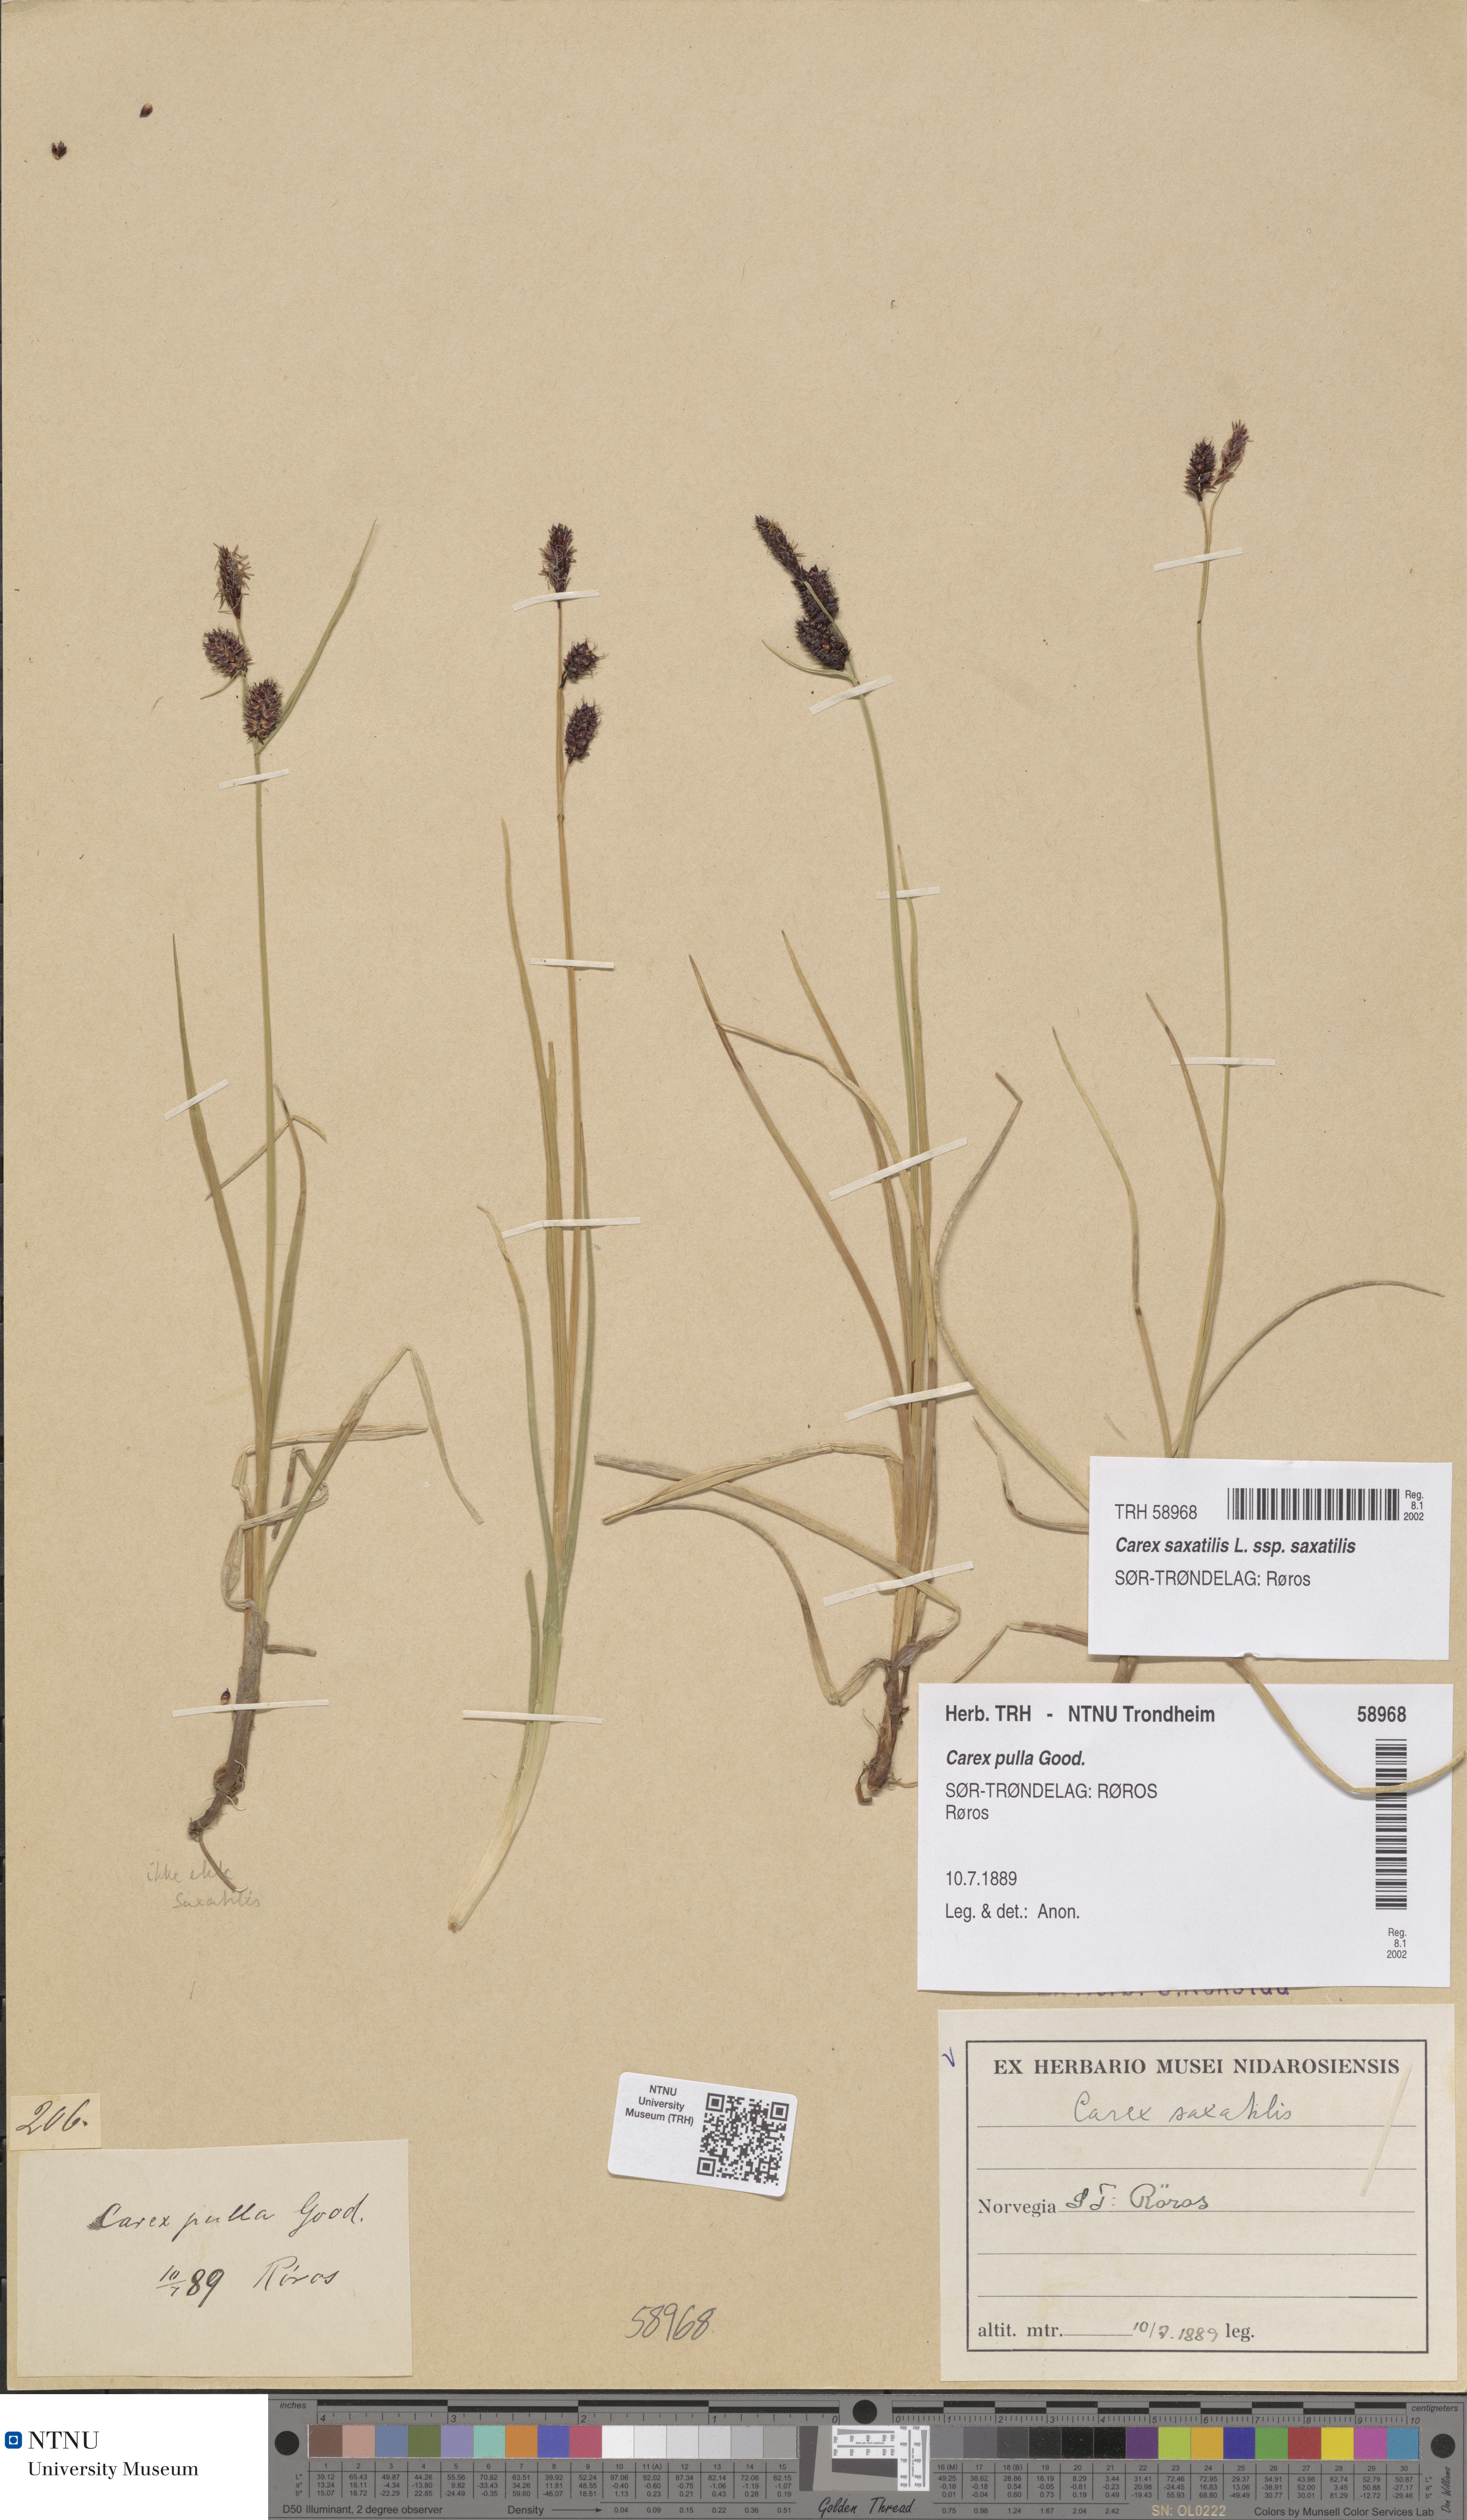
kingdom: Plantae
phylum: Tracheophyta
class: Liliopsida
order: Poales
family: Cyperaceae
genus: Carex
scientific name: Carex saxatilis
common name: Russet sedge
